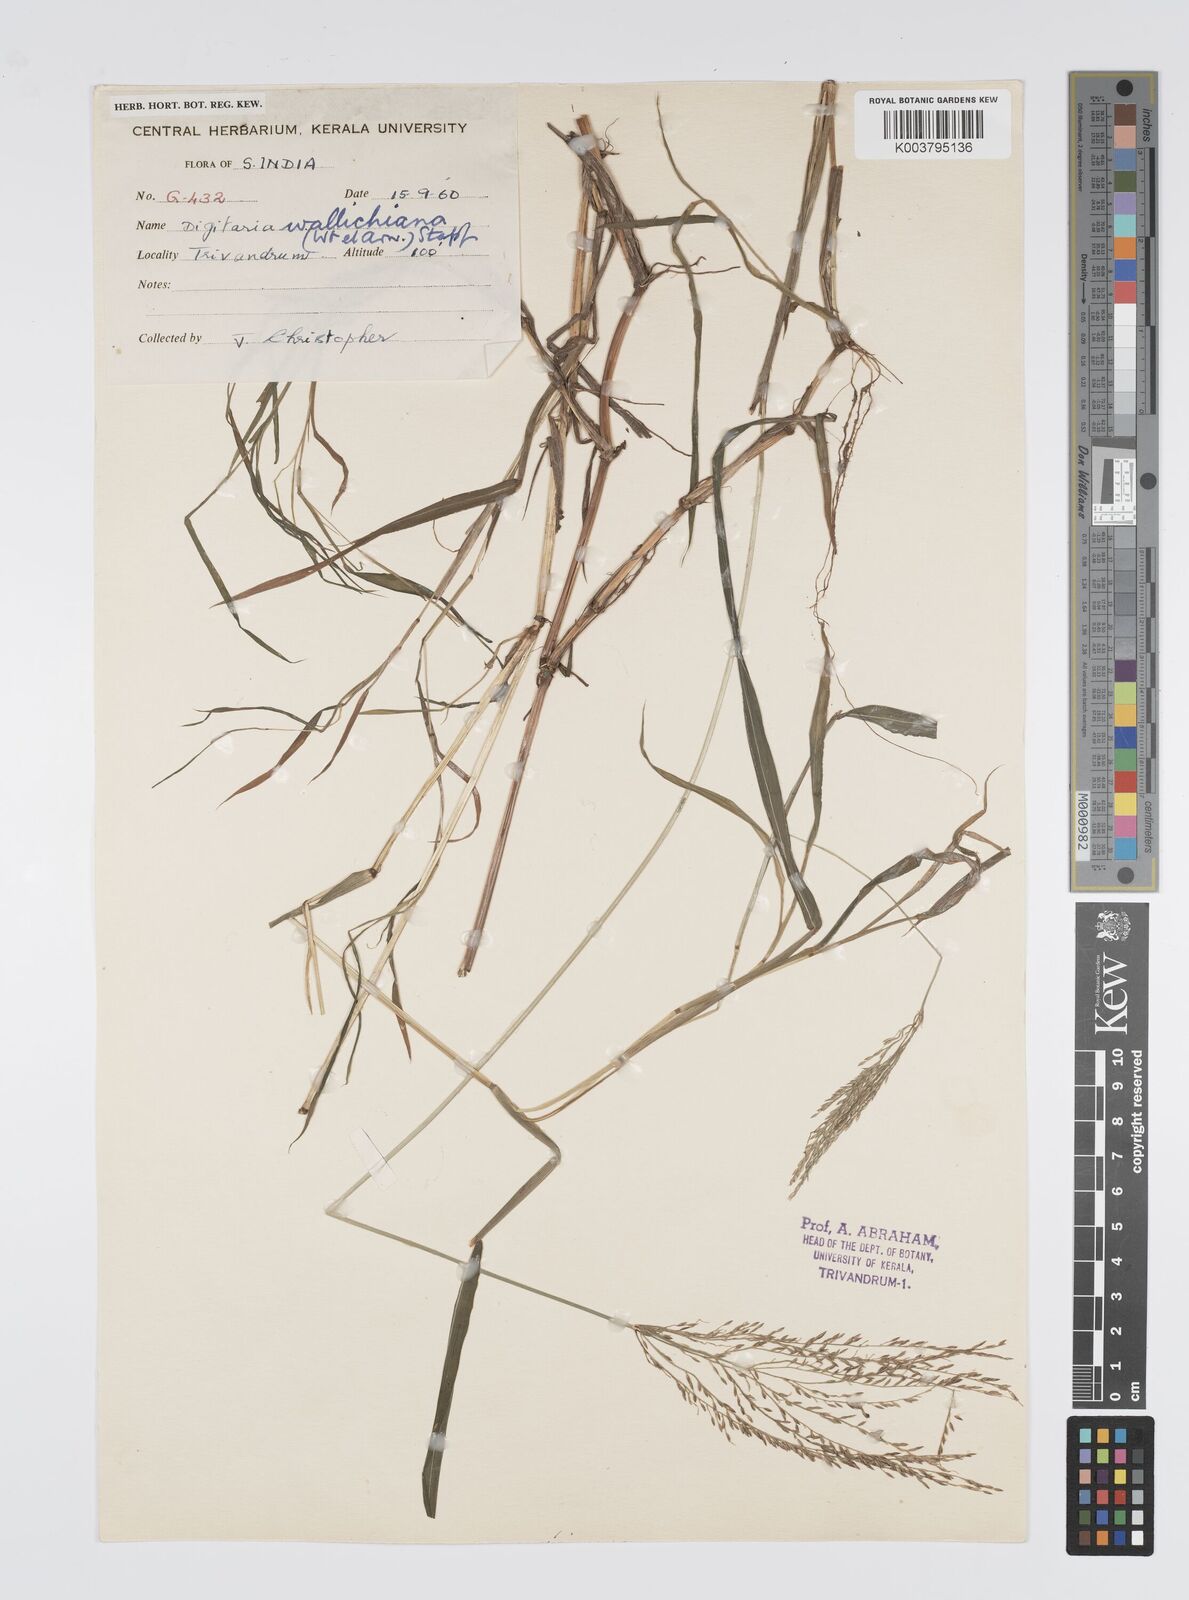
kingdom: Plantae
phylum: Tracheophyta
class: Liliopsida
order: Poales
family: Poaceae
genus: Digitaria
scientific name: Digitaria wallichiana
